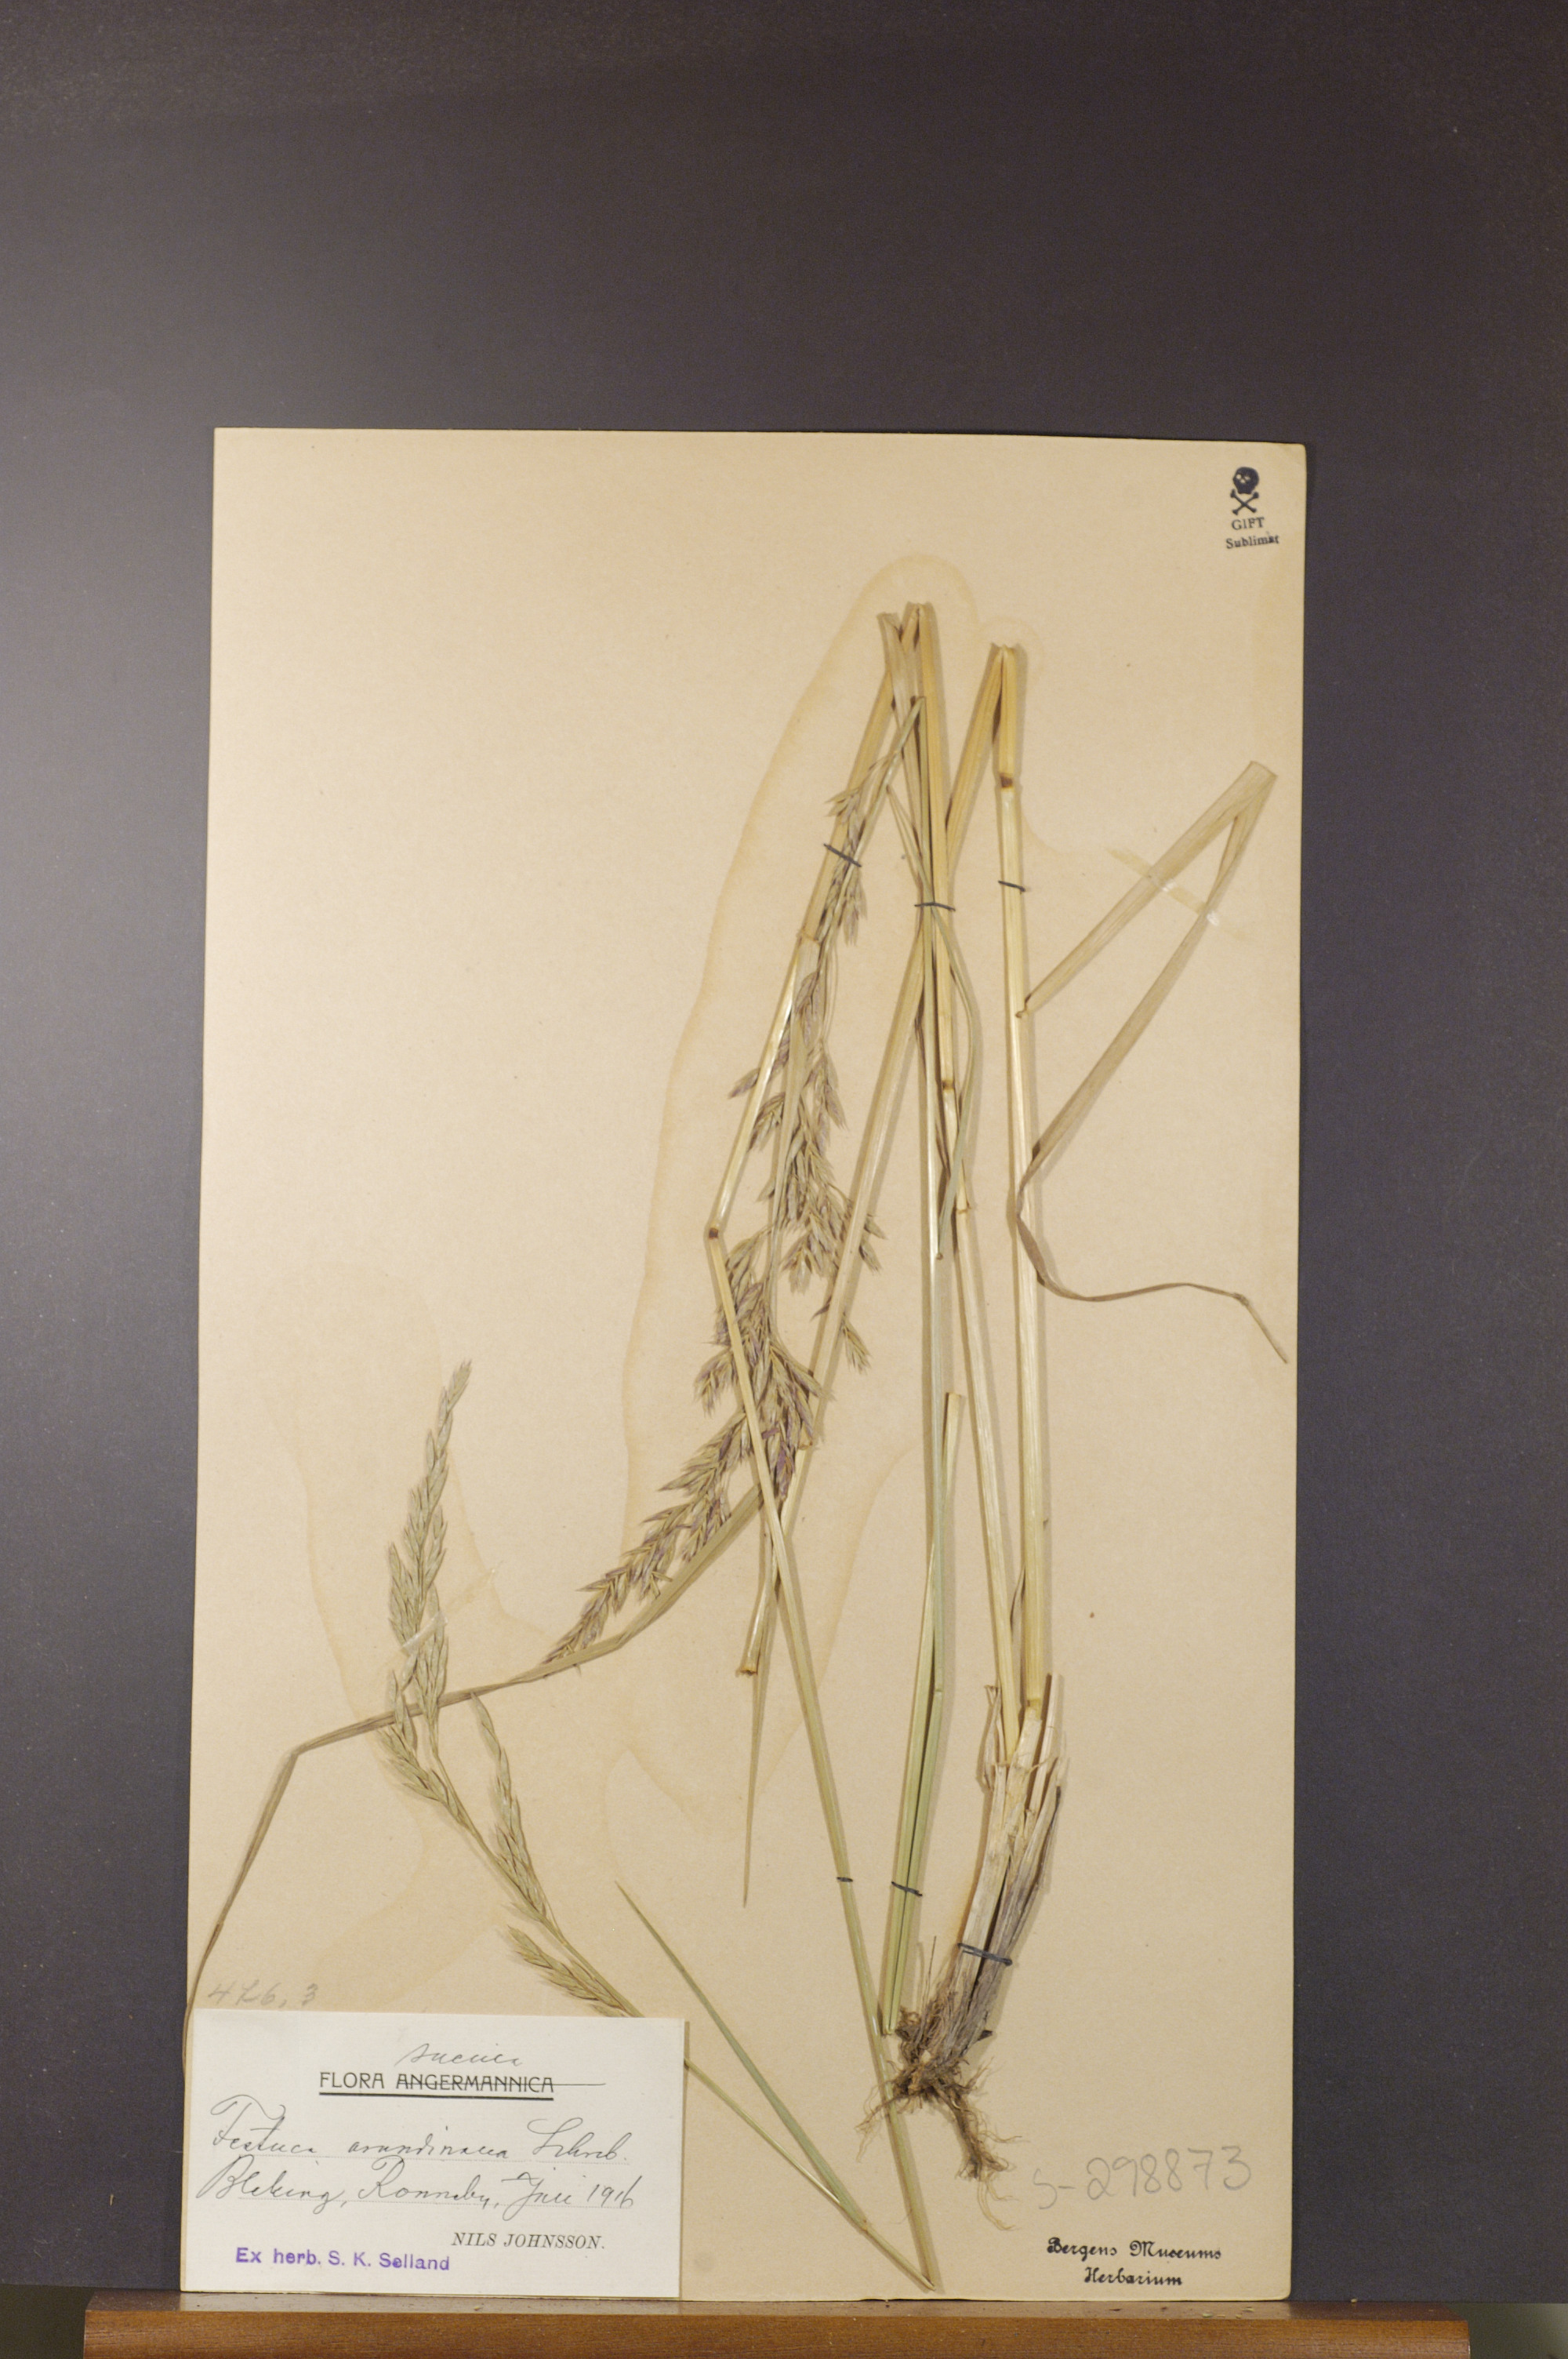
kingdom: Plantae
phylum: Tracheophyta
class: Liliopsida
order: Poales
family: Poaceae
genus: Lolium
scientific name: Lolium arundinaceum
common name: Reed fescue
